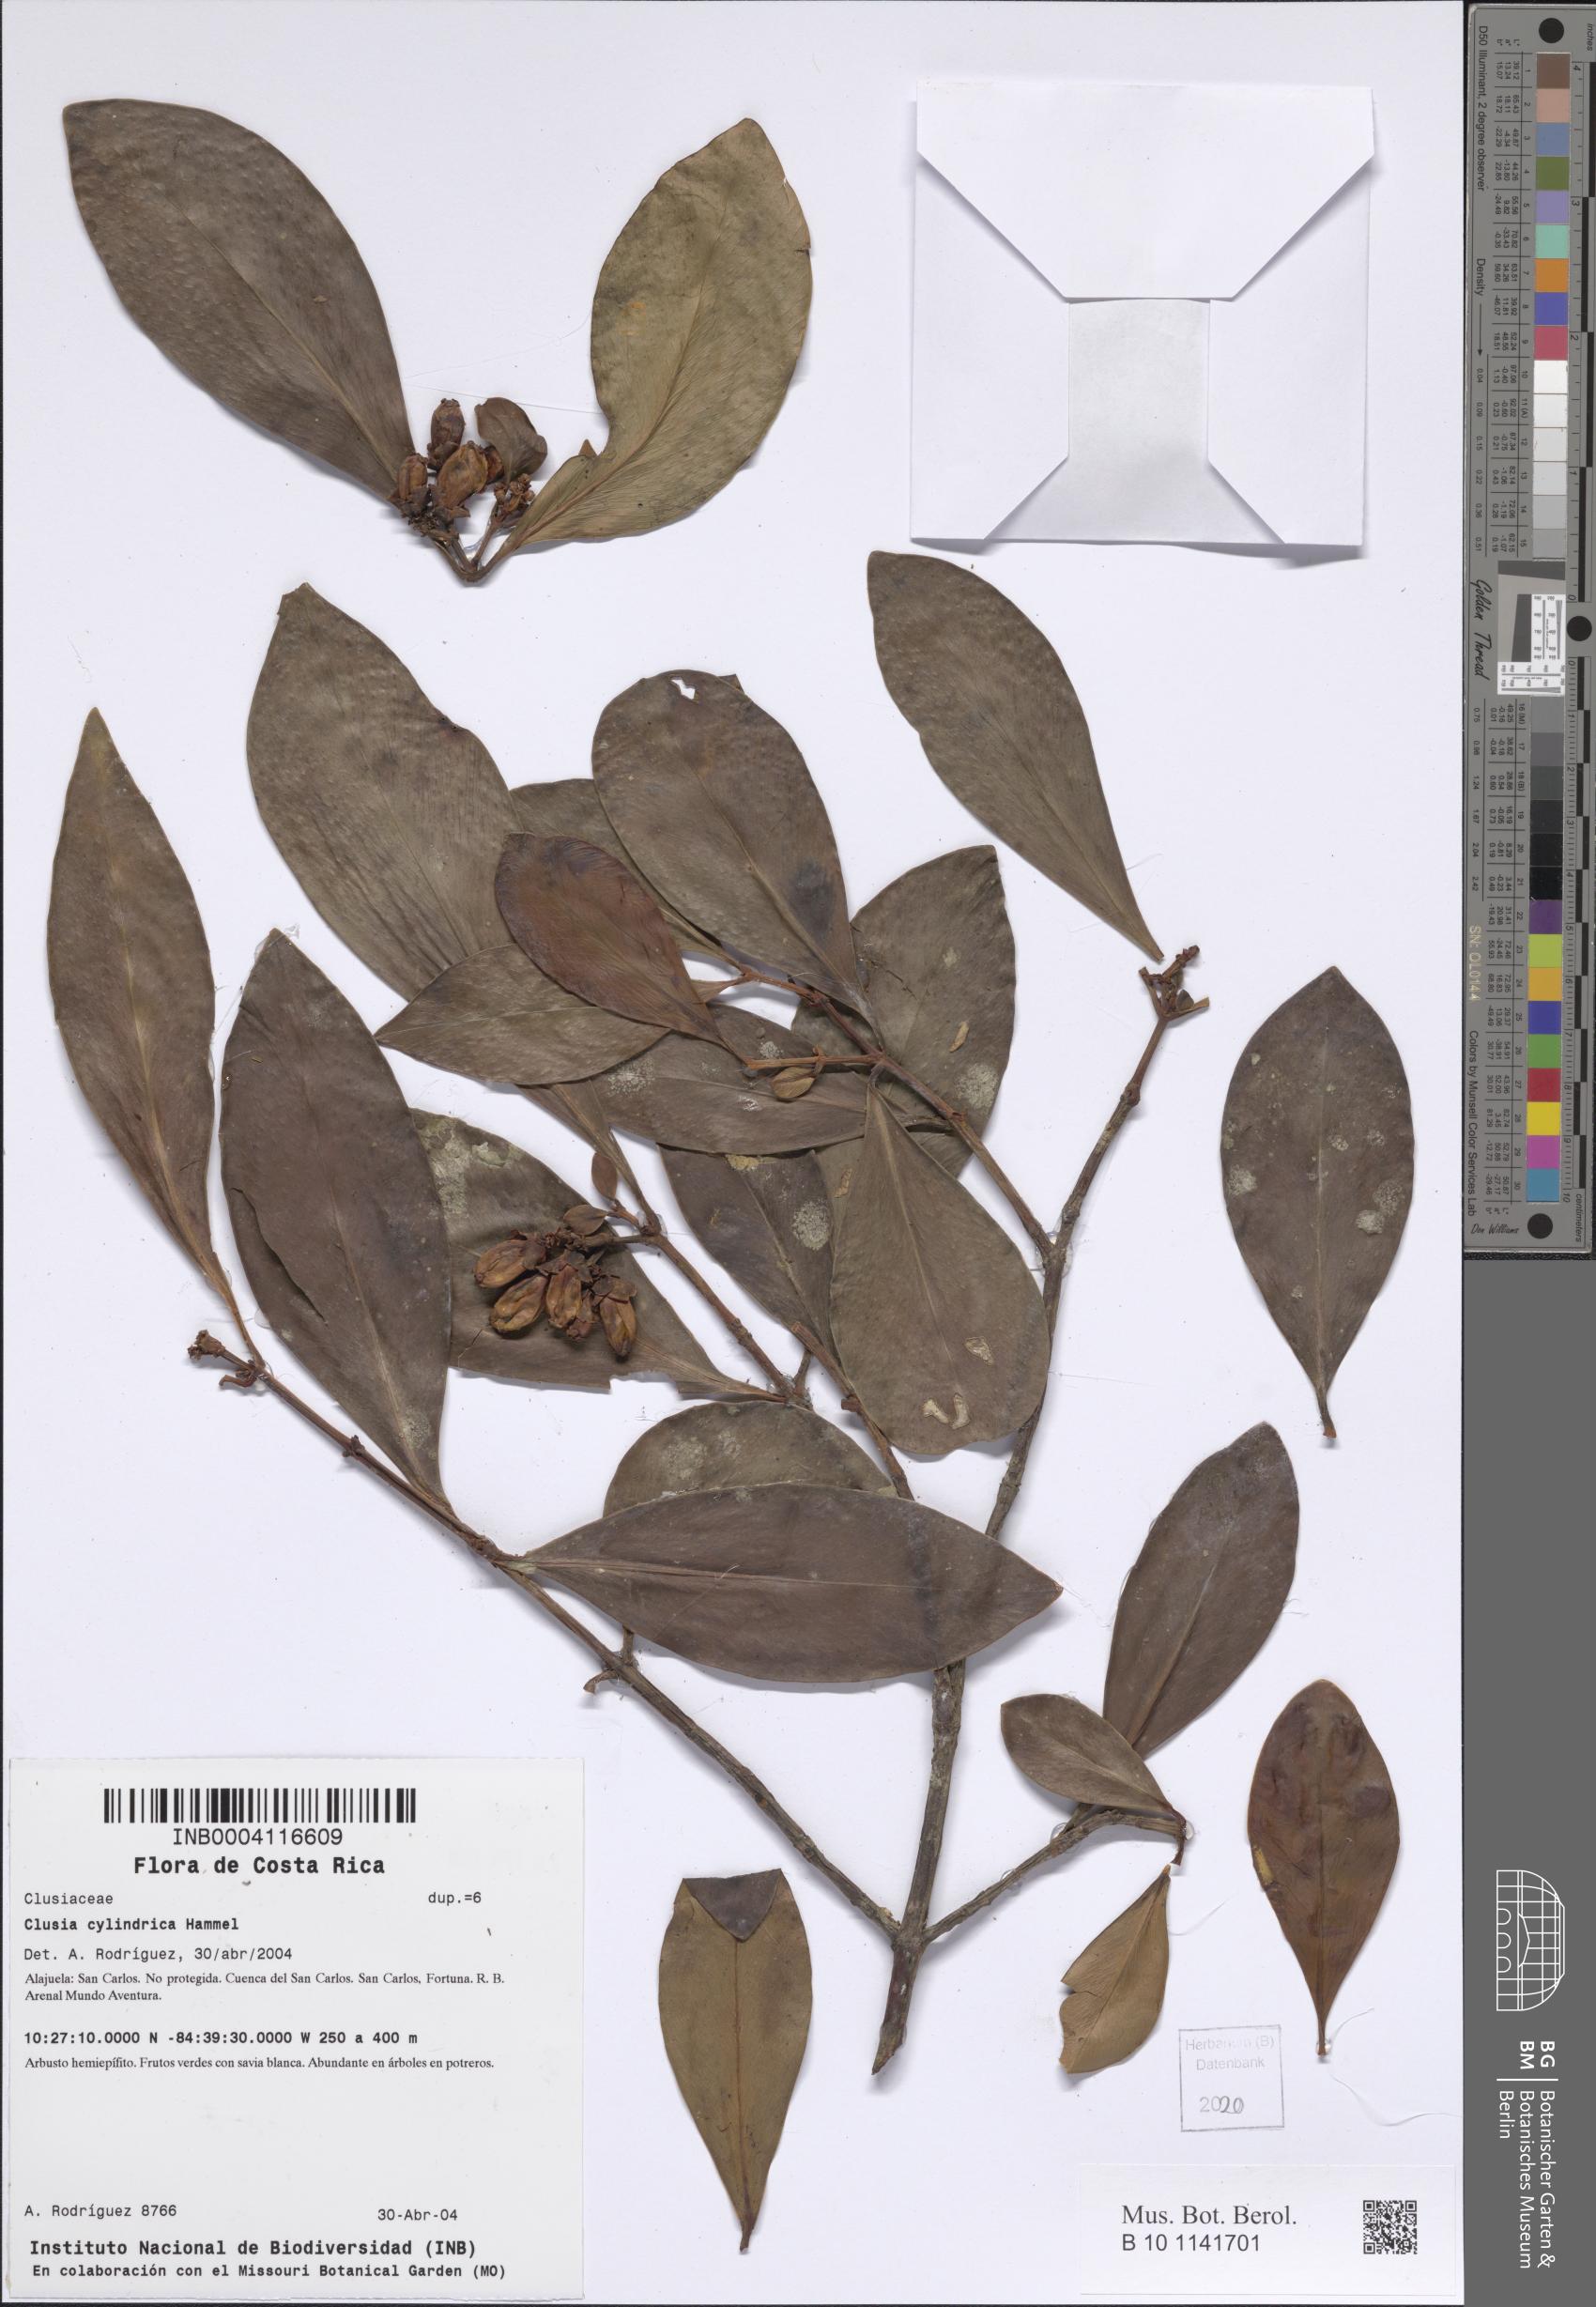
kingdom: Plantae
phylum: Tracheophyta
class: Magnoliopsida
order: Malpighiales
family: Clusiaceae
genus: Clusia
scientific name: Clusia cylindrica
